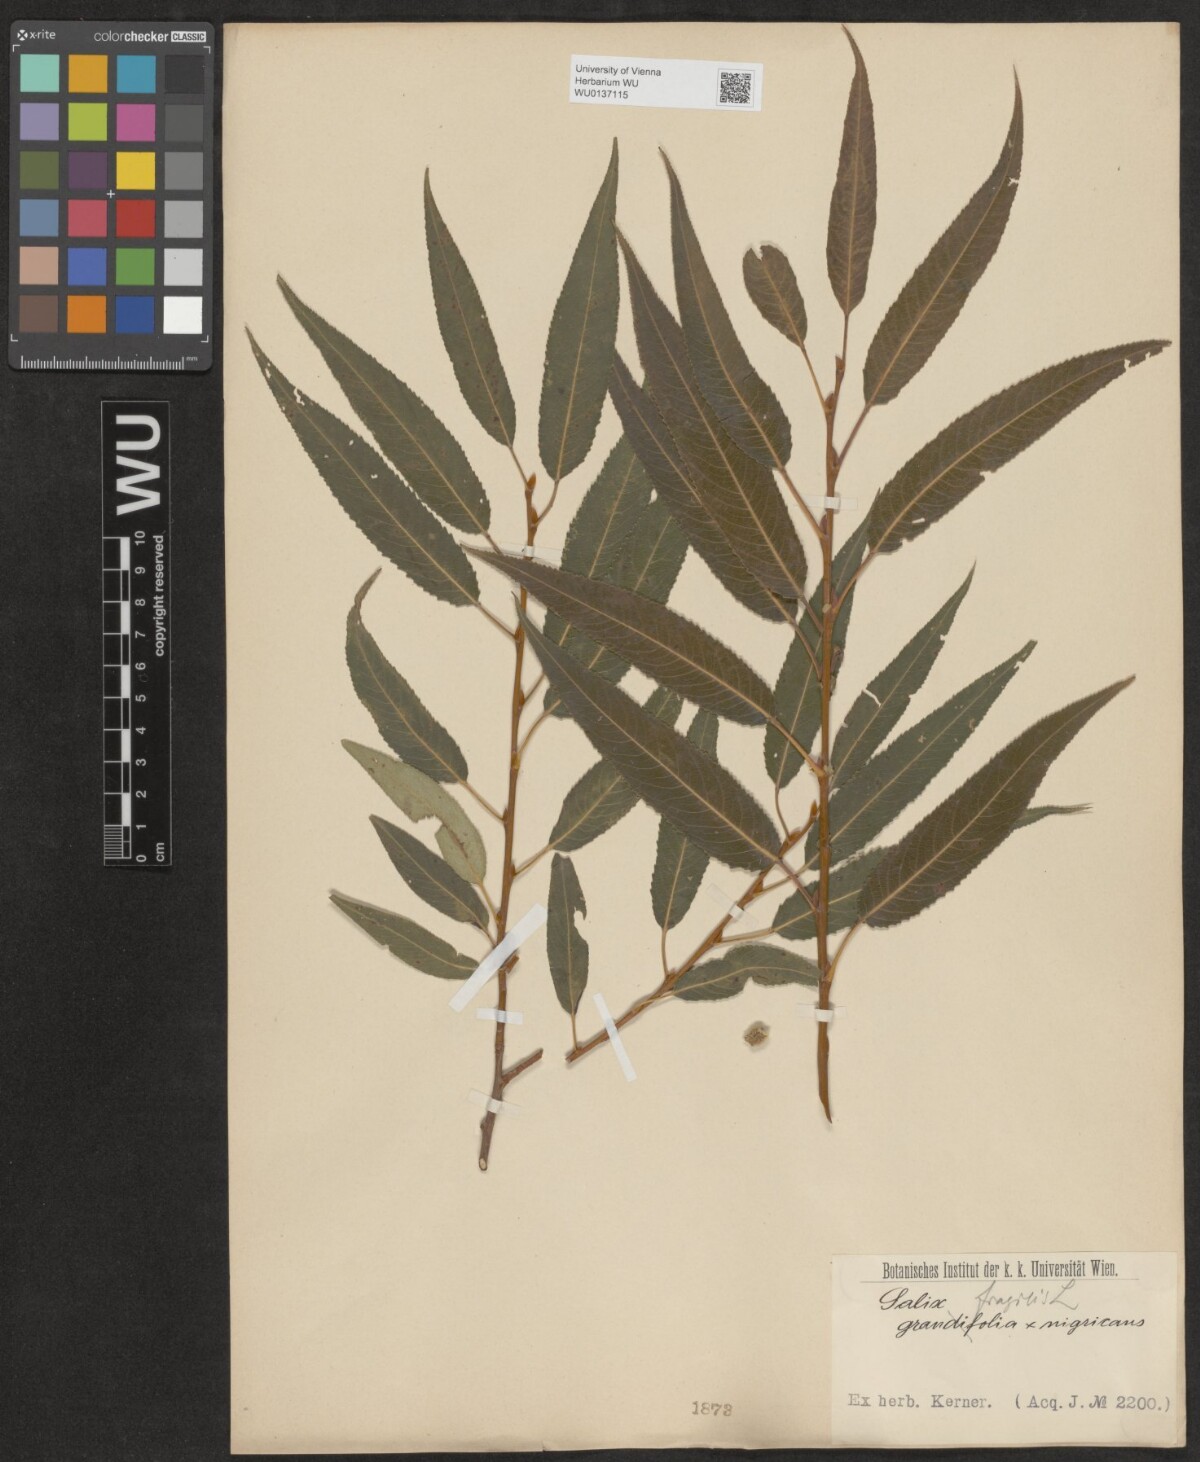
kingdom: Plantae
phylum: Tracheophyta
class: Magnoliopsida
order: Malpighiales
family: Salicaceae
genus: Salix
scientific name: Salix fragilis
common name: Crack willow
